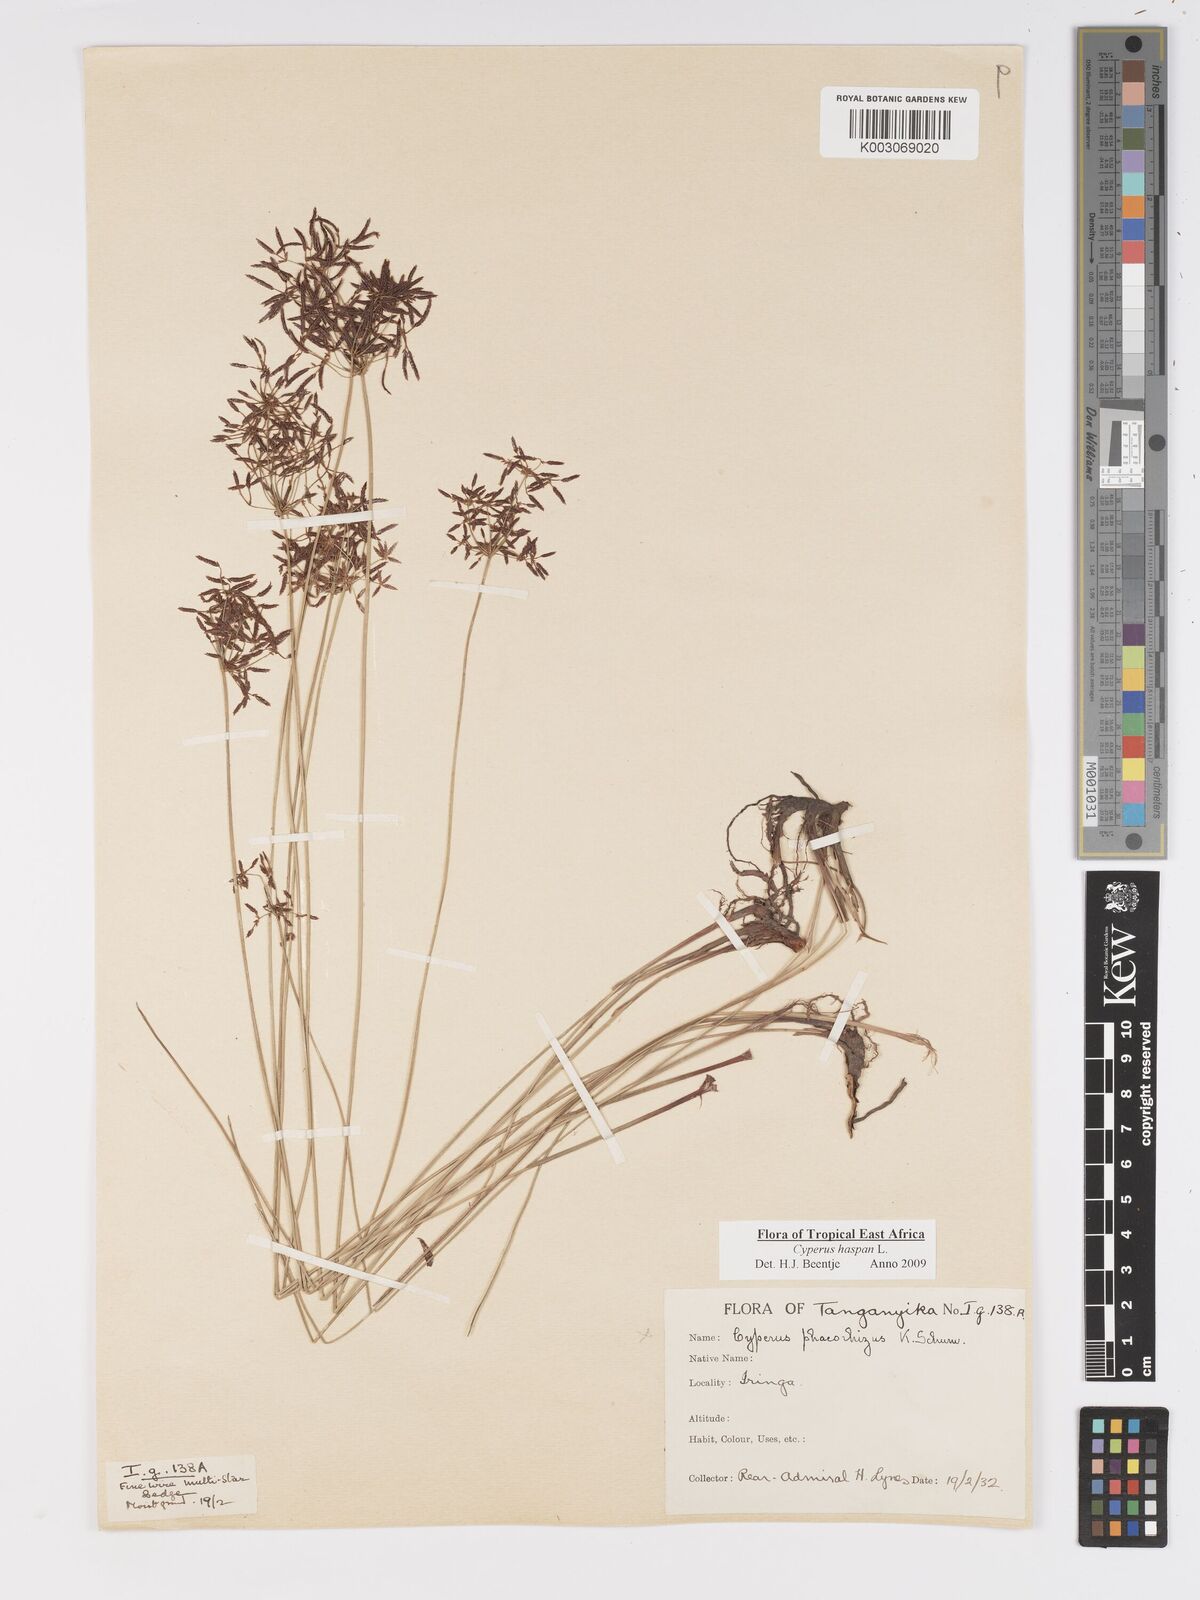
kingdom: Plantae
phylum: Tracheophyta
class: Liliopsida
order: Poales
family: Cyperaceae
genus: Cyperus
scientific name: Cyperus
